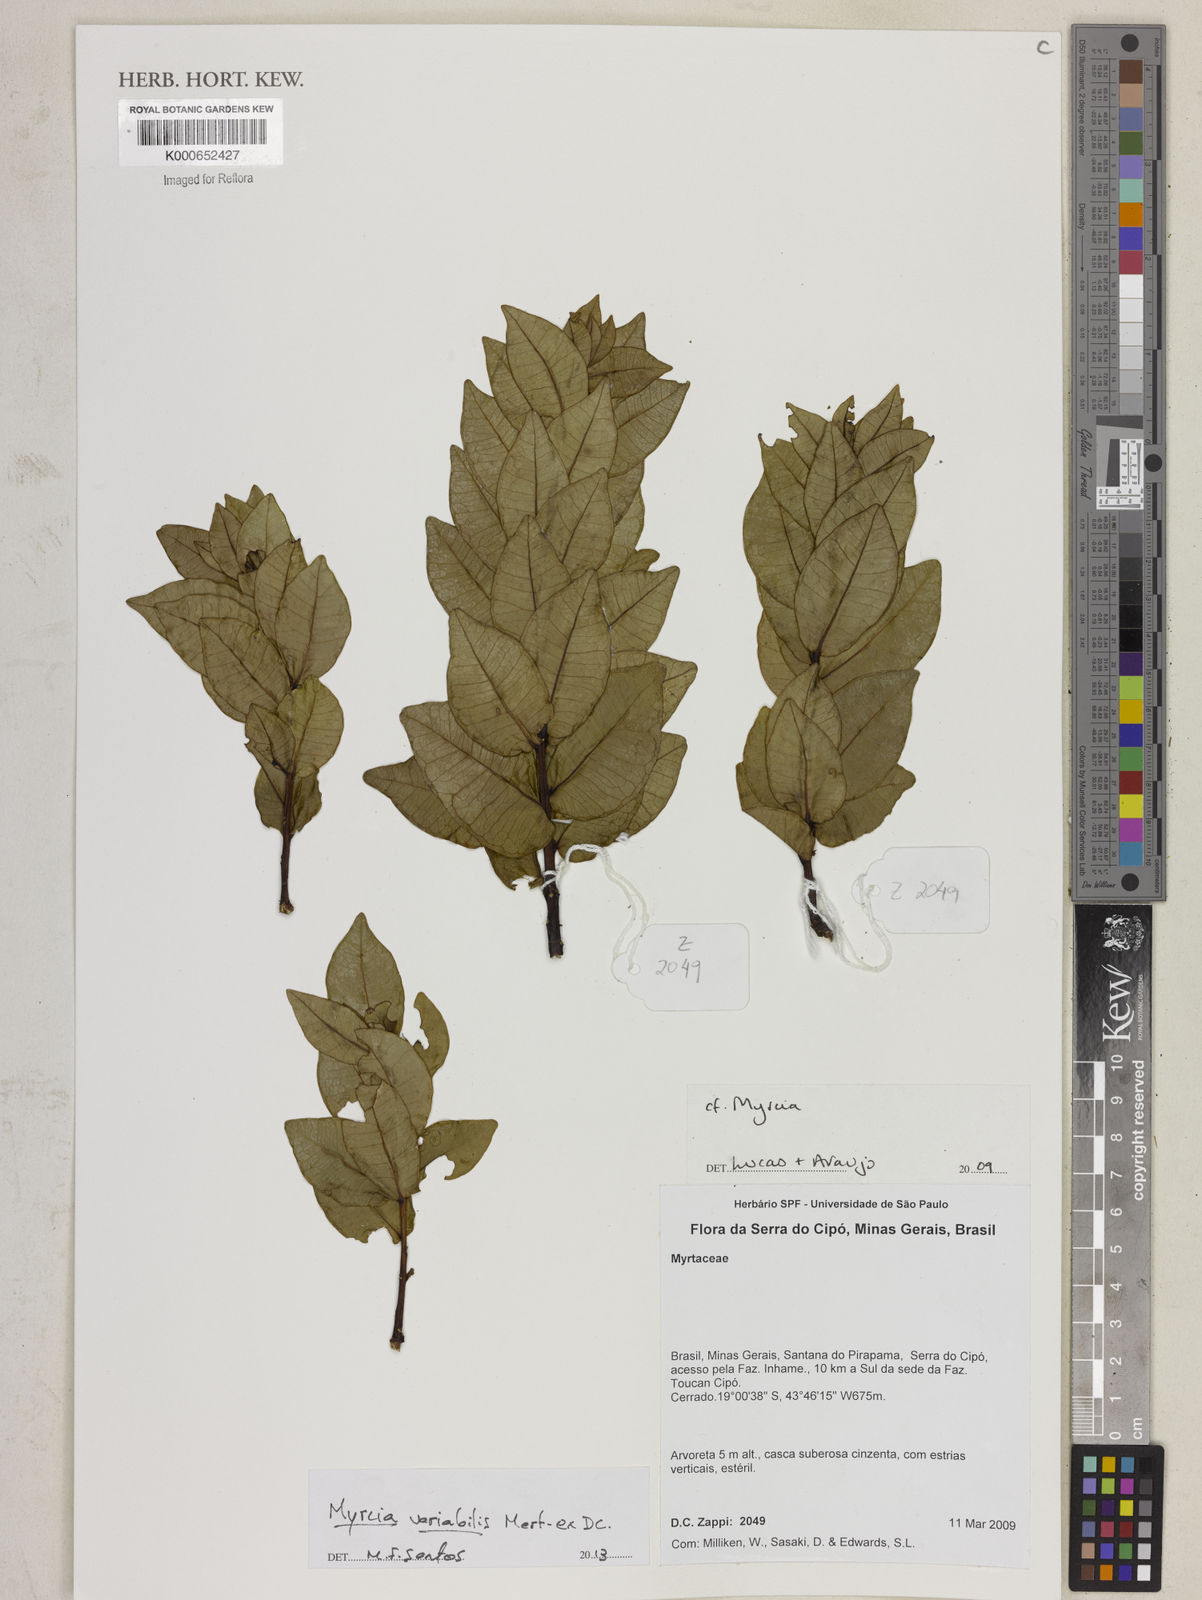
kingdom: Plantae
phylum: Tracheophyta
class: Magnoliopsida
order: Myrtales
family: Myrtaceae
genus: Myrcia
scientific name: Myrcia variabilis
